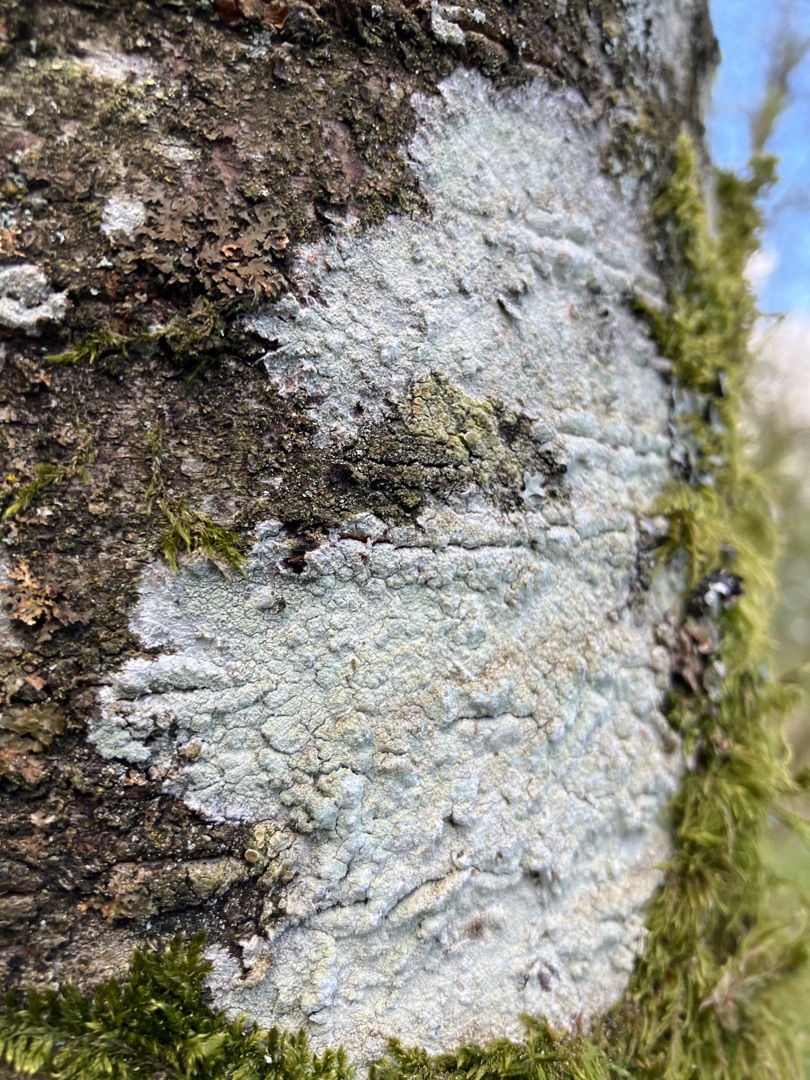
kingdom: Fungi
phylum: Ascomycota
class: Lecanoromycetes
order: Ostropales
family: Phlyctidaceae
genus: Phlyctis
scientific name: Phlyctis argena
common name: Almindelig sølvlav
